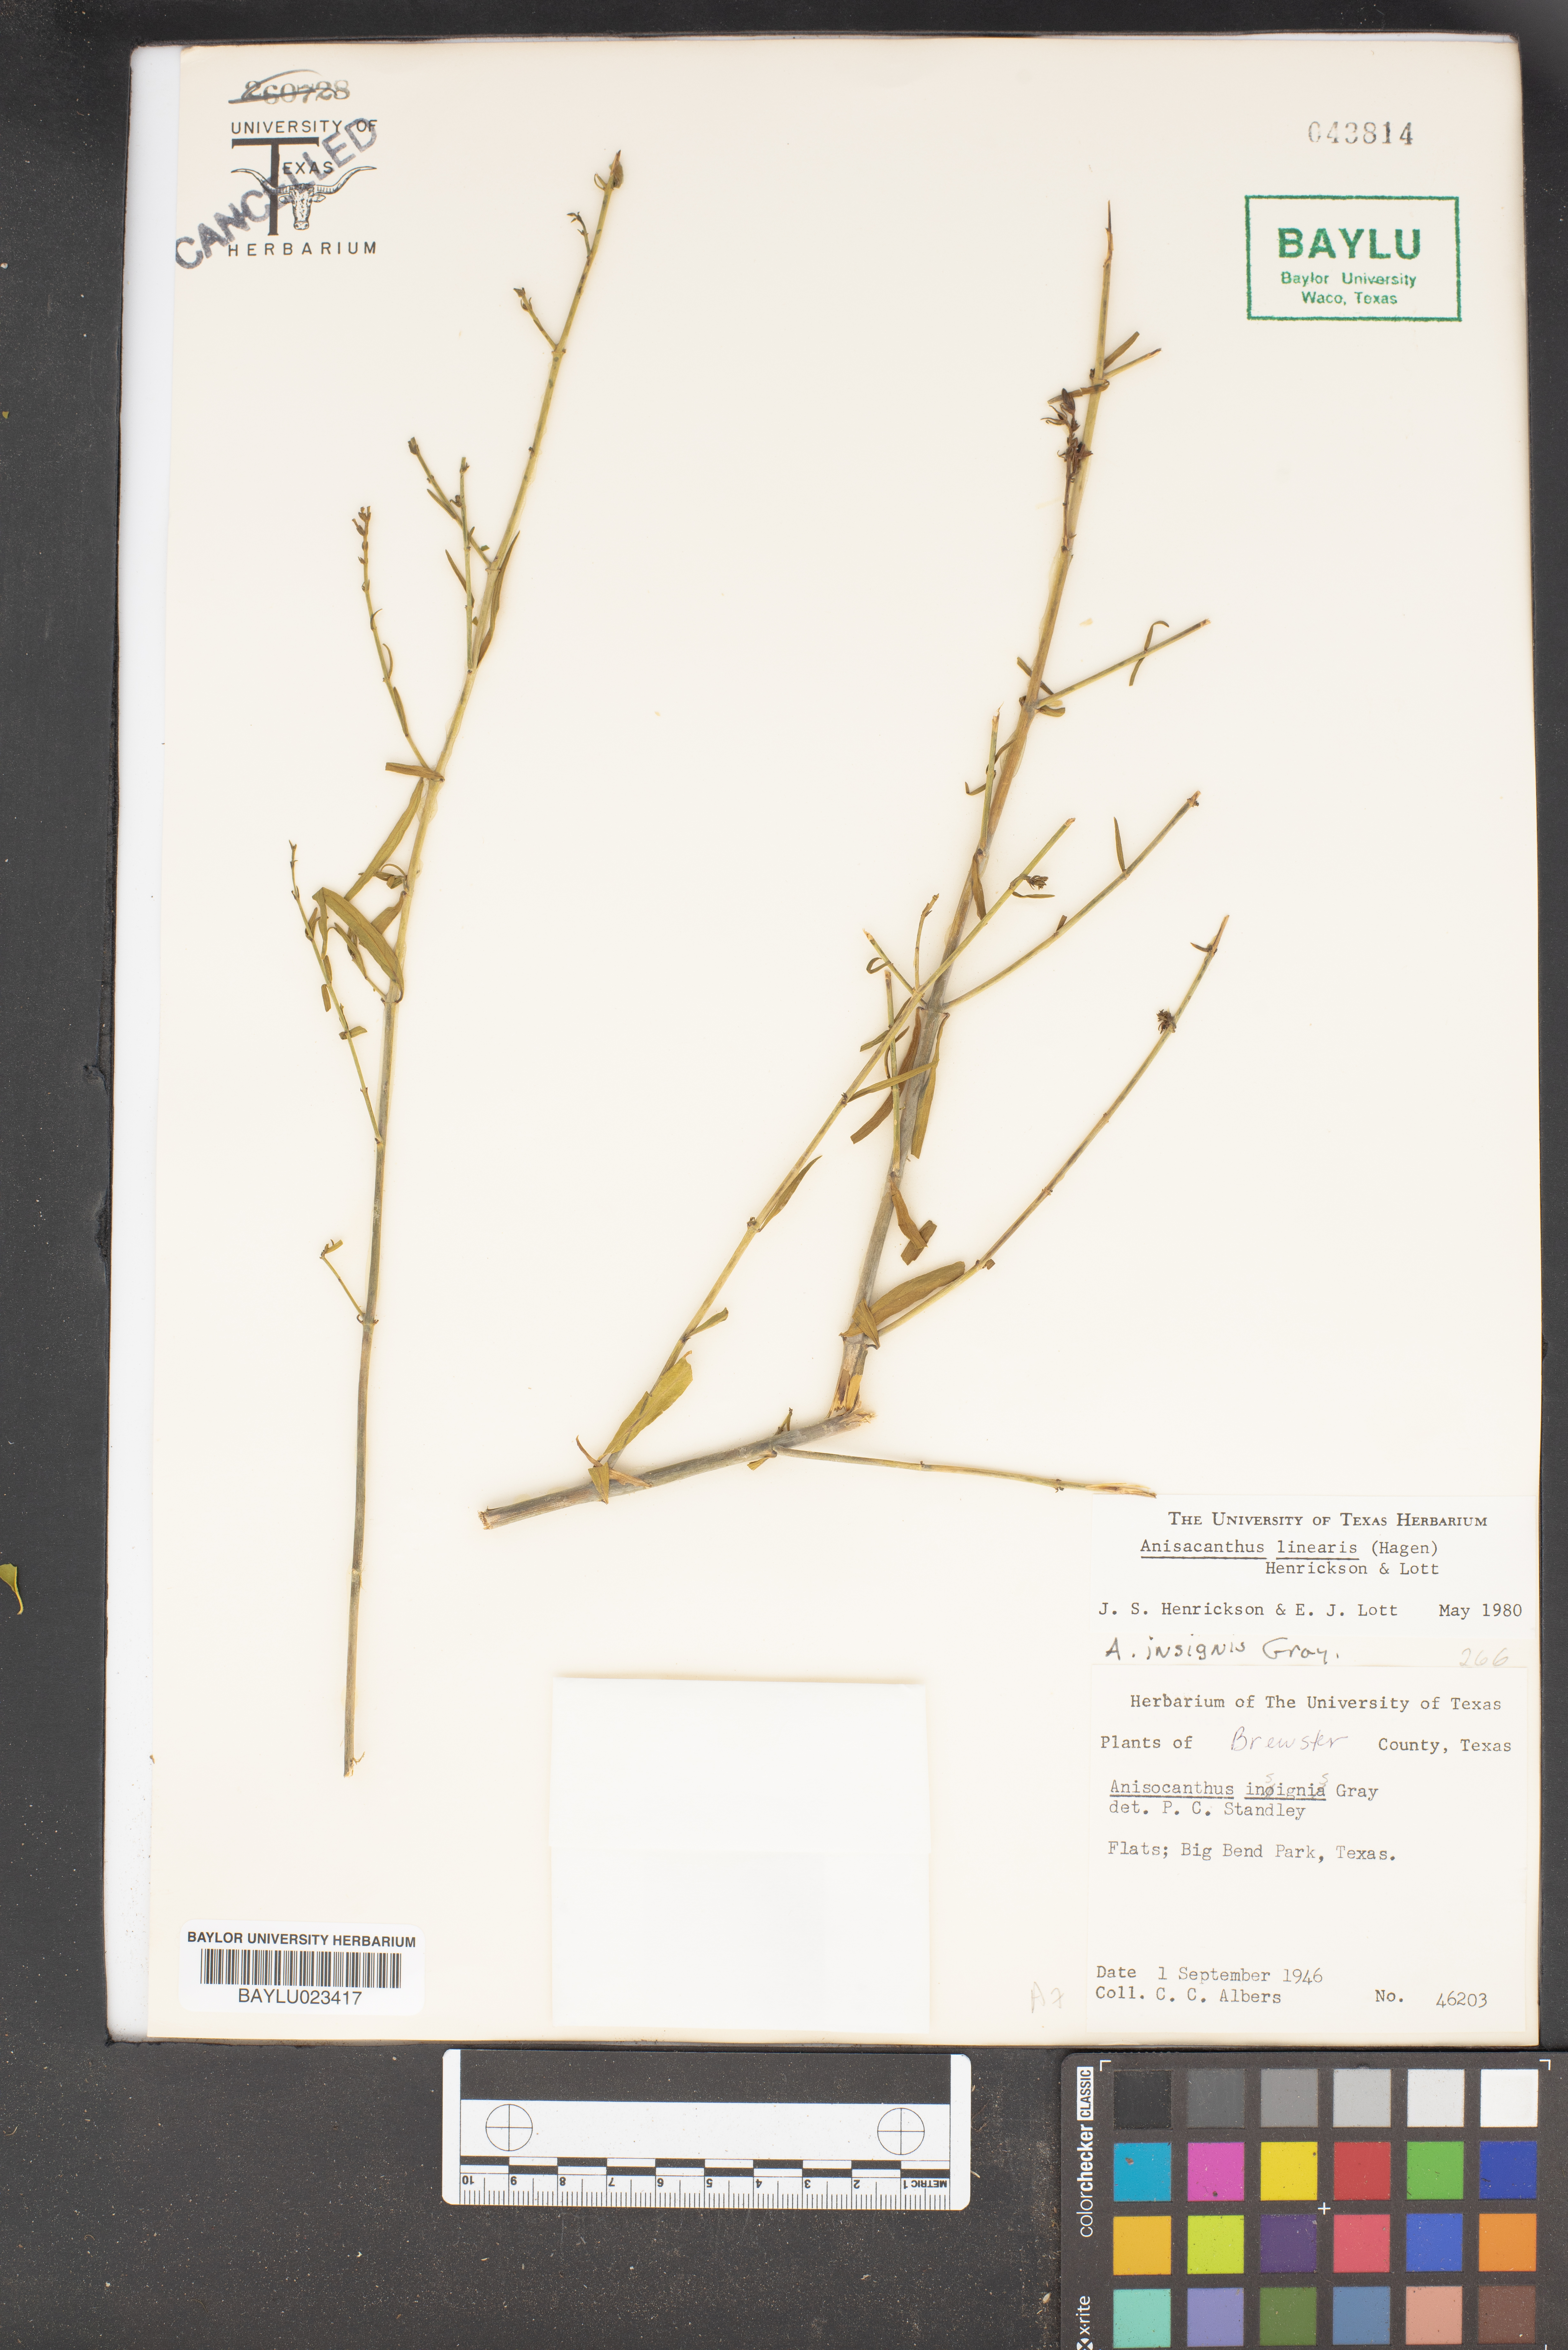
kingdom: Plantae
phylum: Tracheophyta
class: Magnoliopsida
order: Lamiales
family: Acanthaceae
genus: Anisacanthus
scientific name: Anisacanthus linearis
